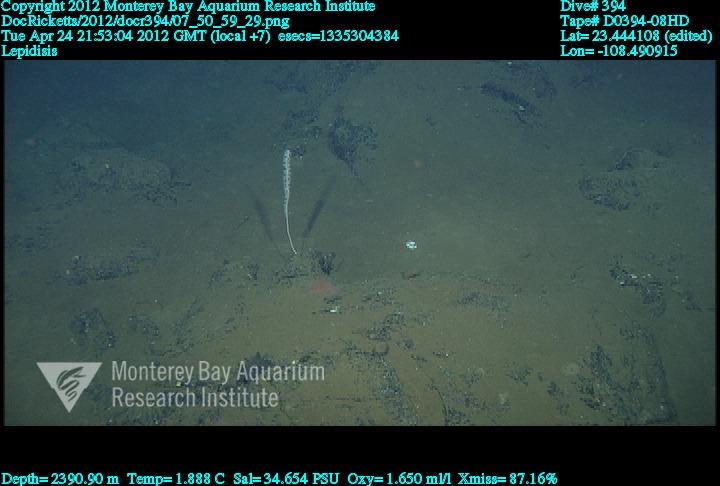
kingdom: Animalia
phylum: Cnidaria
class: Anthozoa
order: Scleralcyonacea
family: Keratoisididae
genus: Lepidisis
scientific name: Lepidisis
